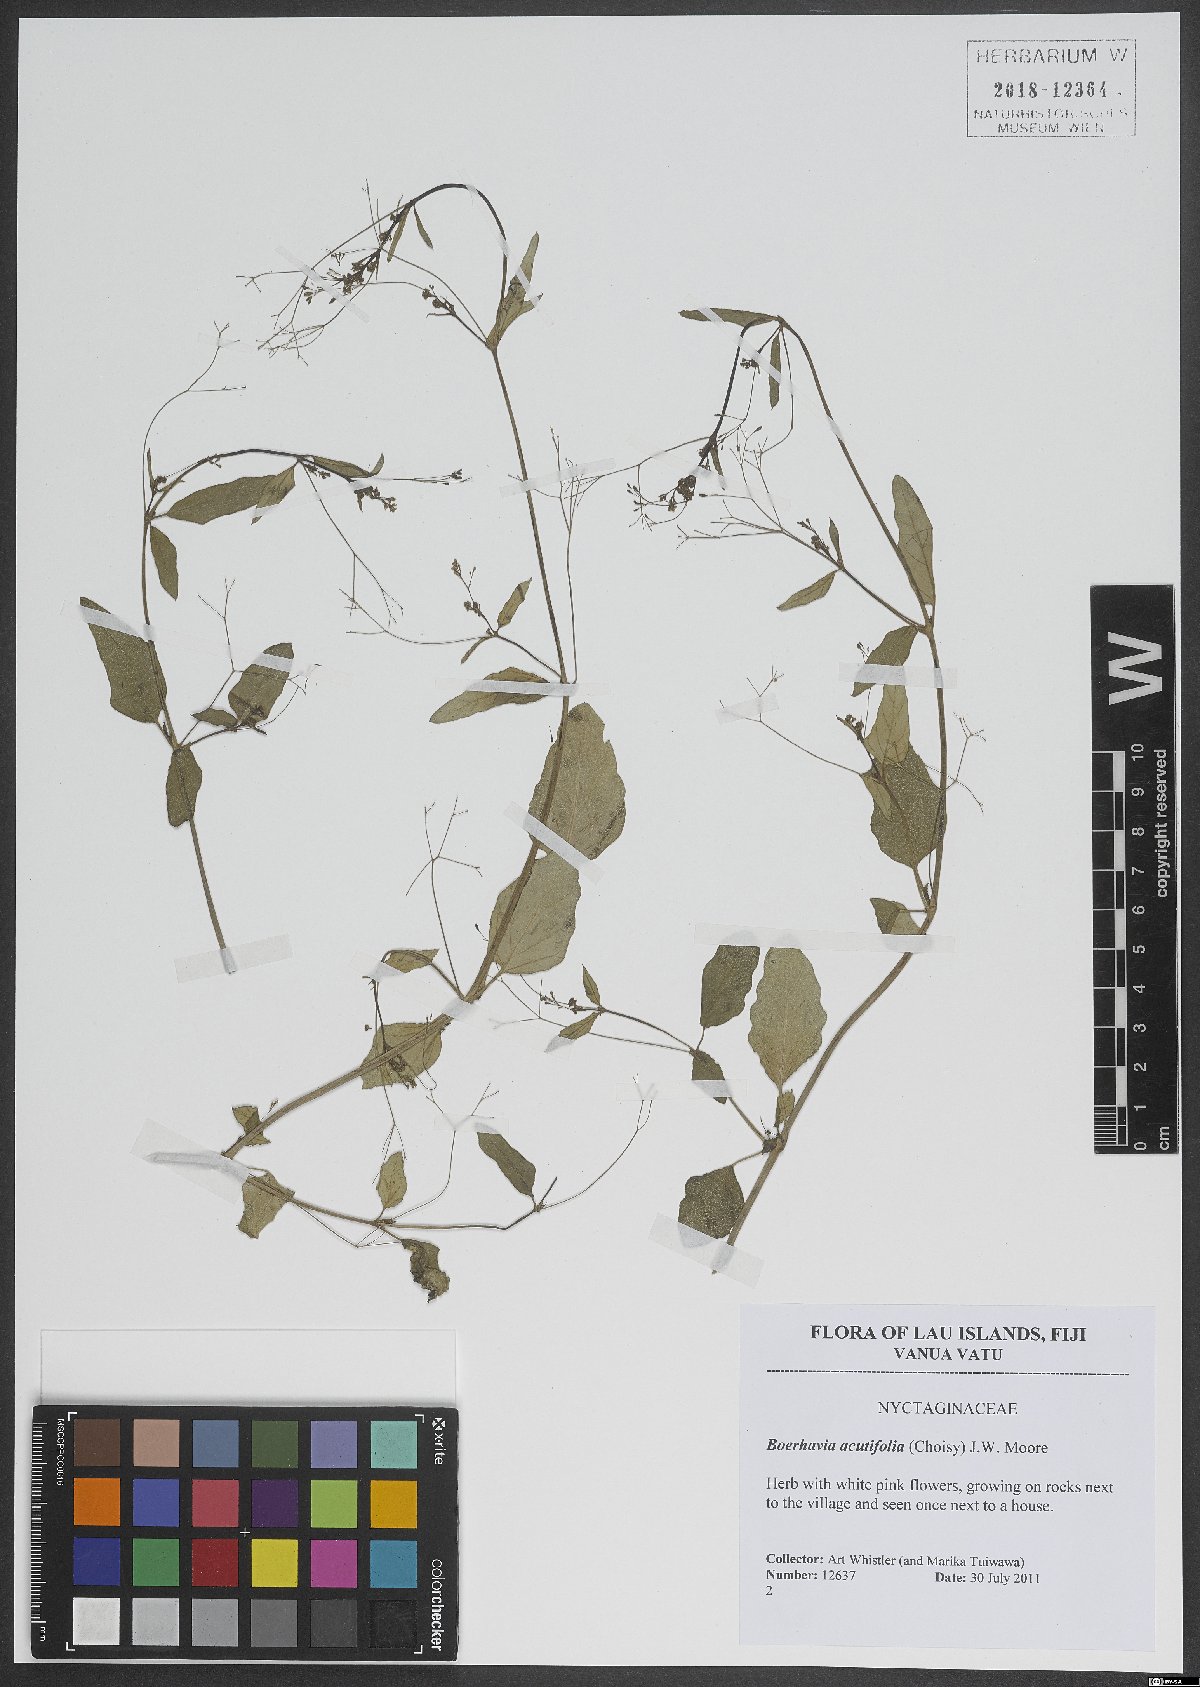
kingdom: Plantae
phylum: Tracheophyta
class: Magnoliopsida
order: Caryophyllales
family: Nyctaginaceae
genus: Boerhavia
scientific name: Boerhavia glabrata
